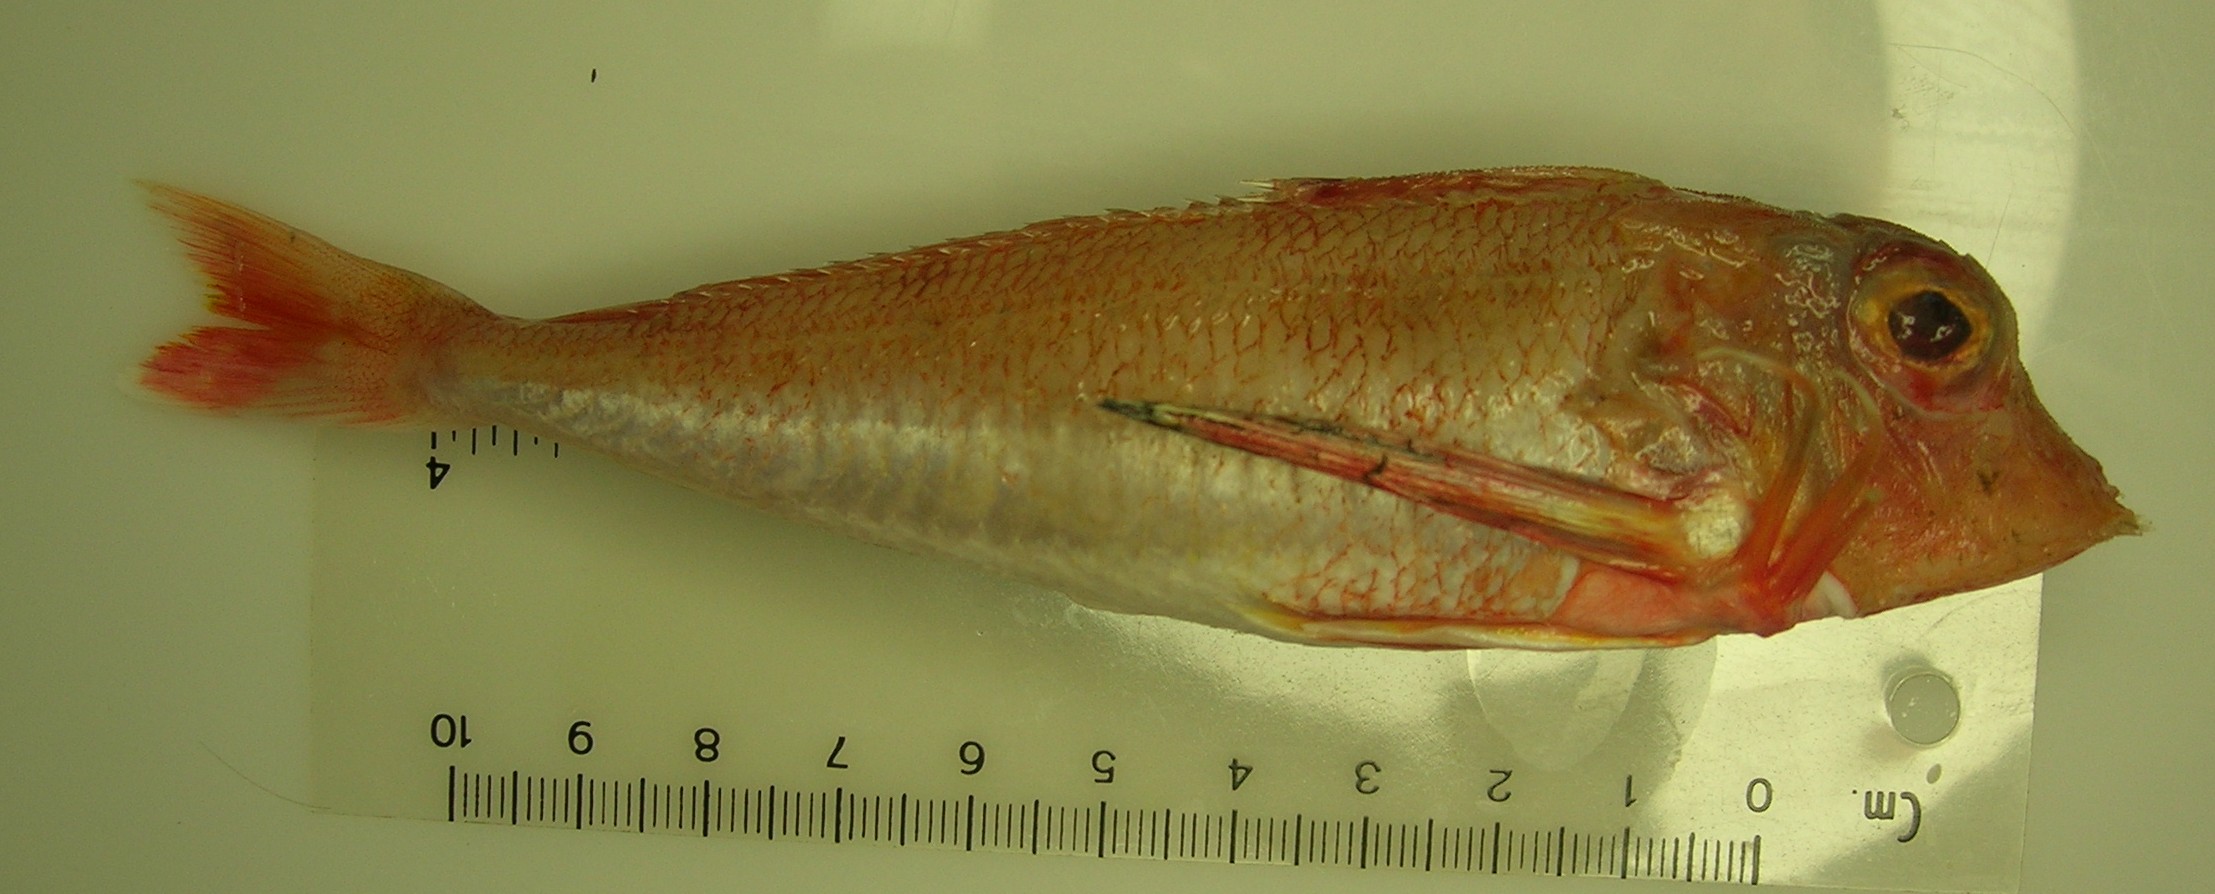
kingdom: Animalia
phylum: Chordata
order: Scorpaeniformes
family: Triglidae
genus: Lepidotrigla
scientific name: Lepidotrigla faurei
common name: Prickly gurnard
